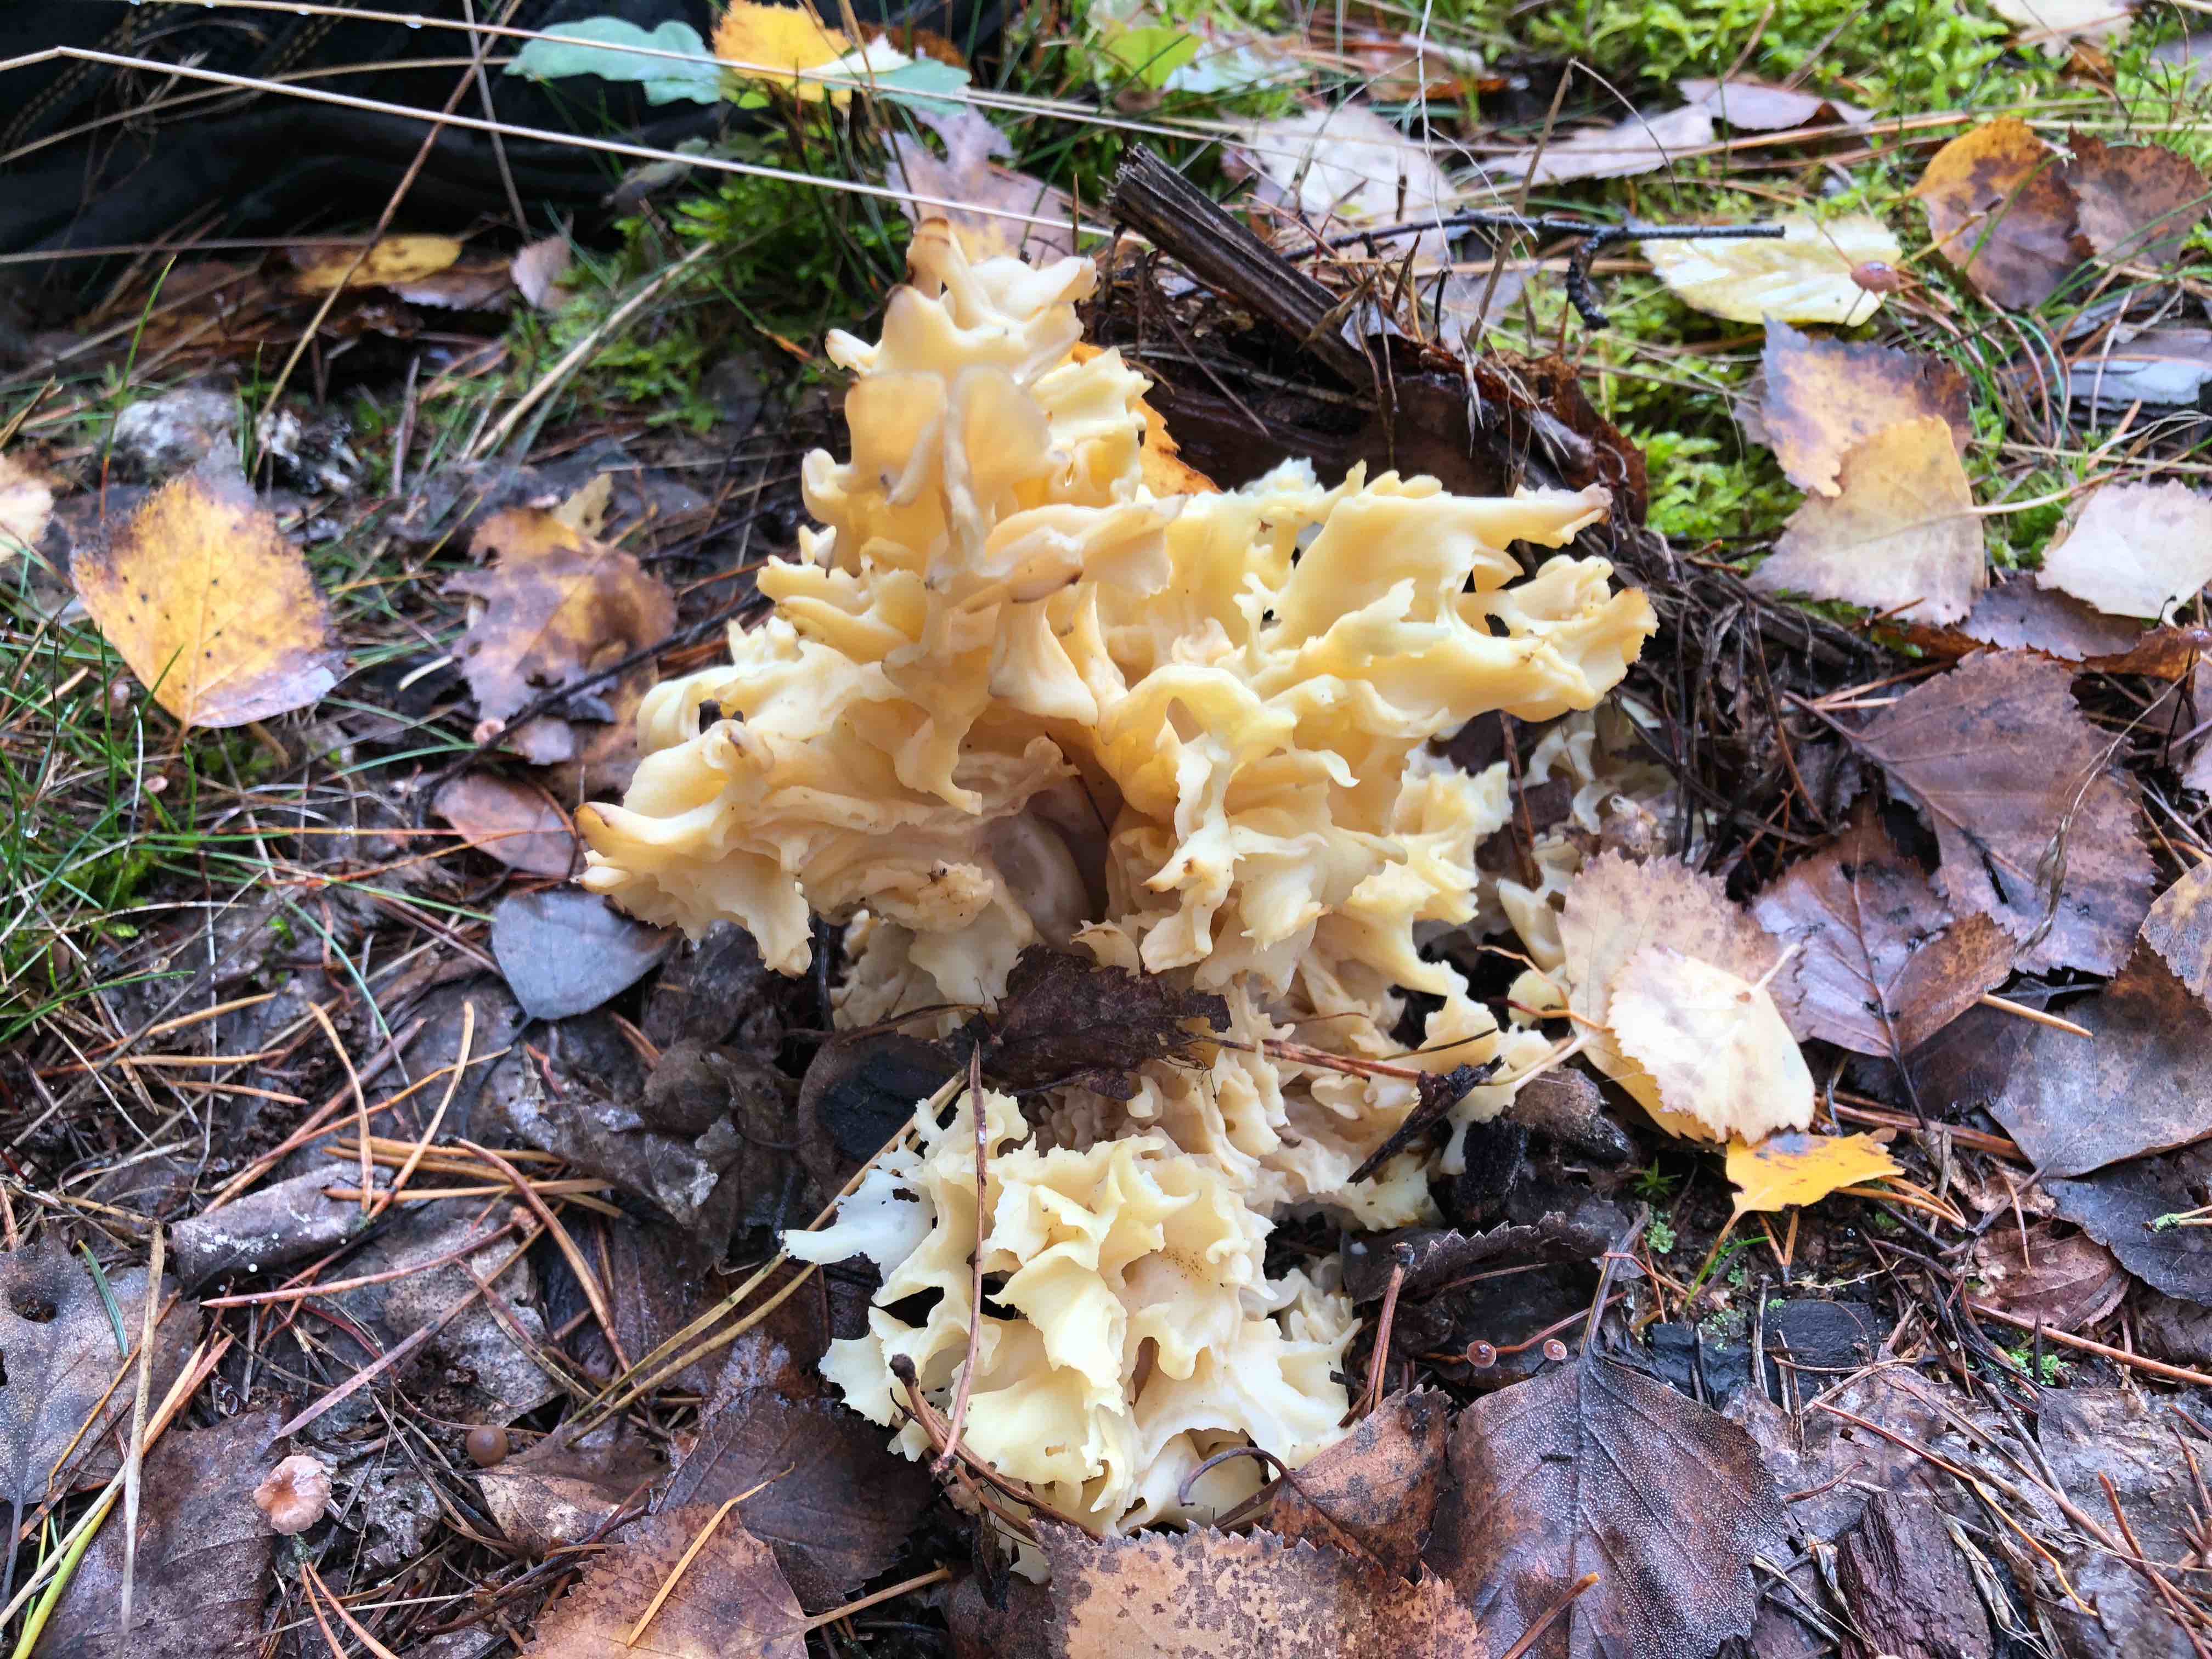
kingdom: Fungi
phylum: Basidiomycota
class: Agaricomycetes
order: Polyporales
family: Sparassidaceae
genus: Sparassis
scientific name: Sparassis crispa
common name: kruset blomkålssvamp
